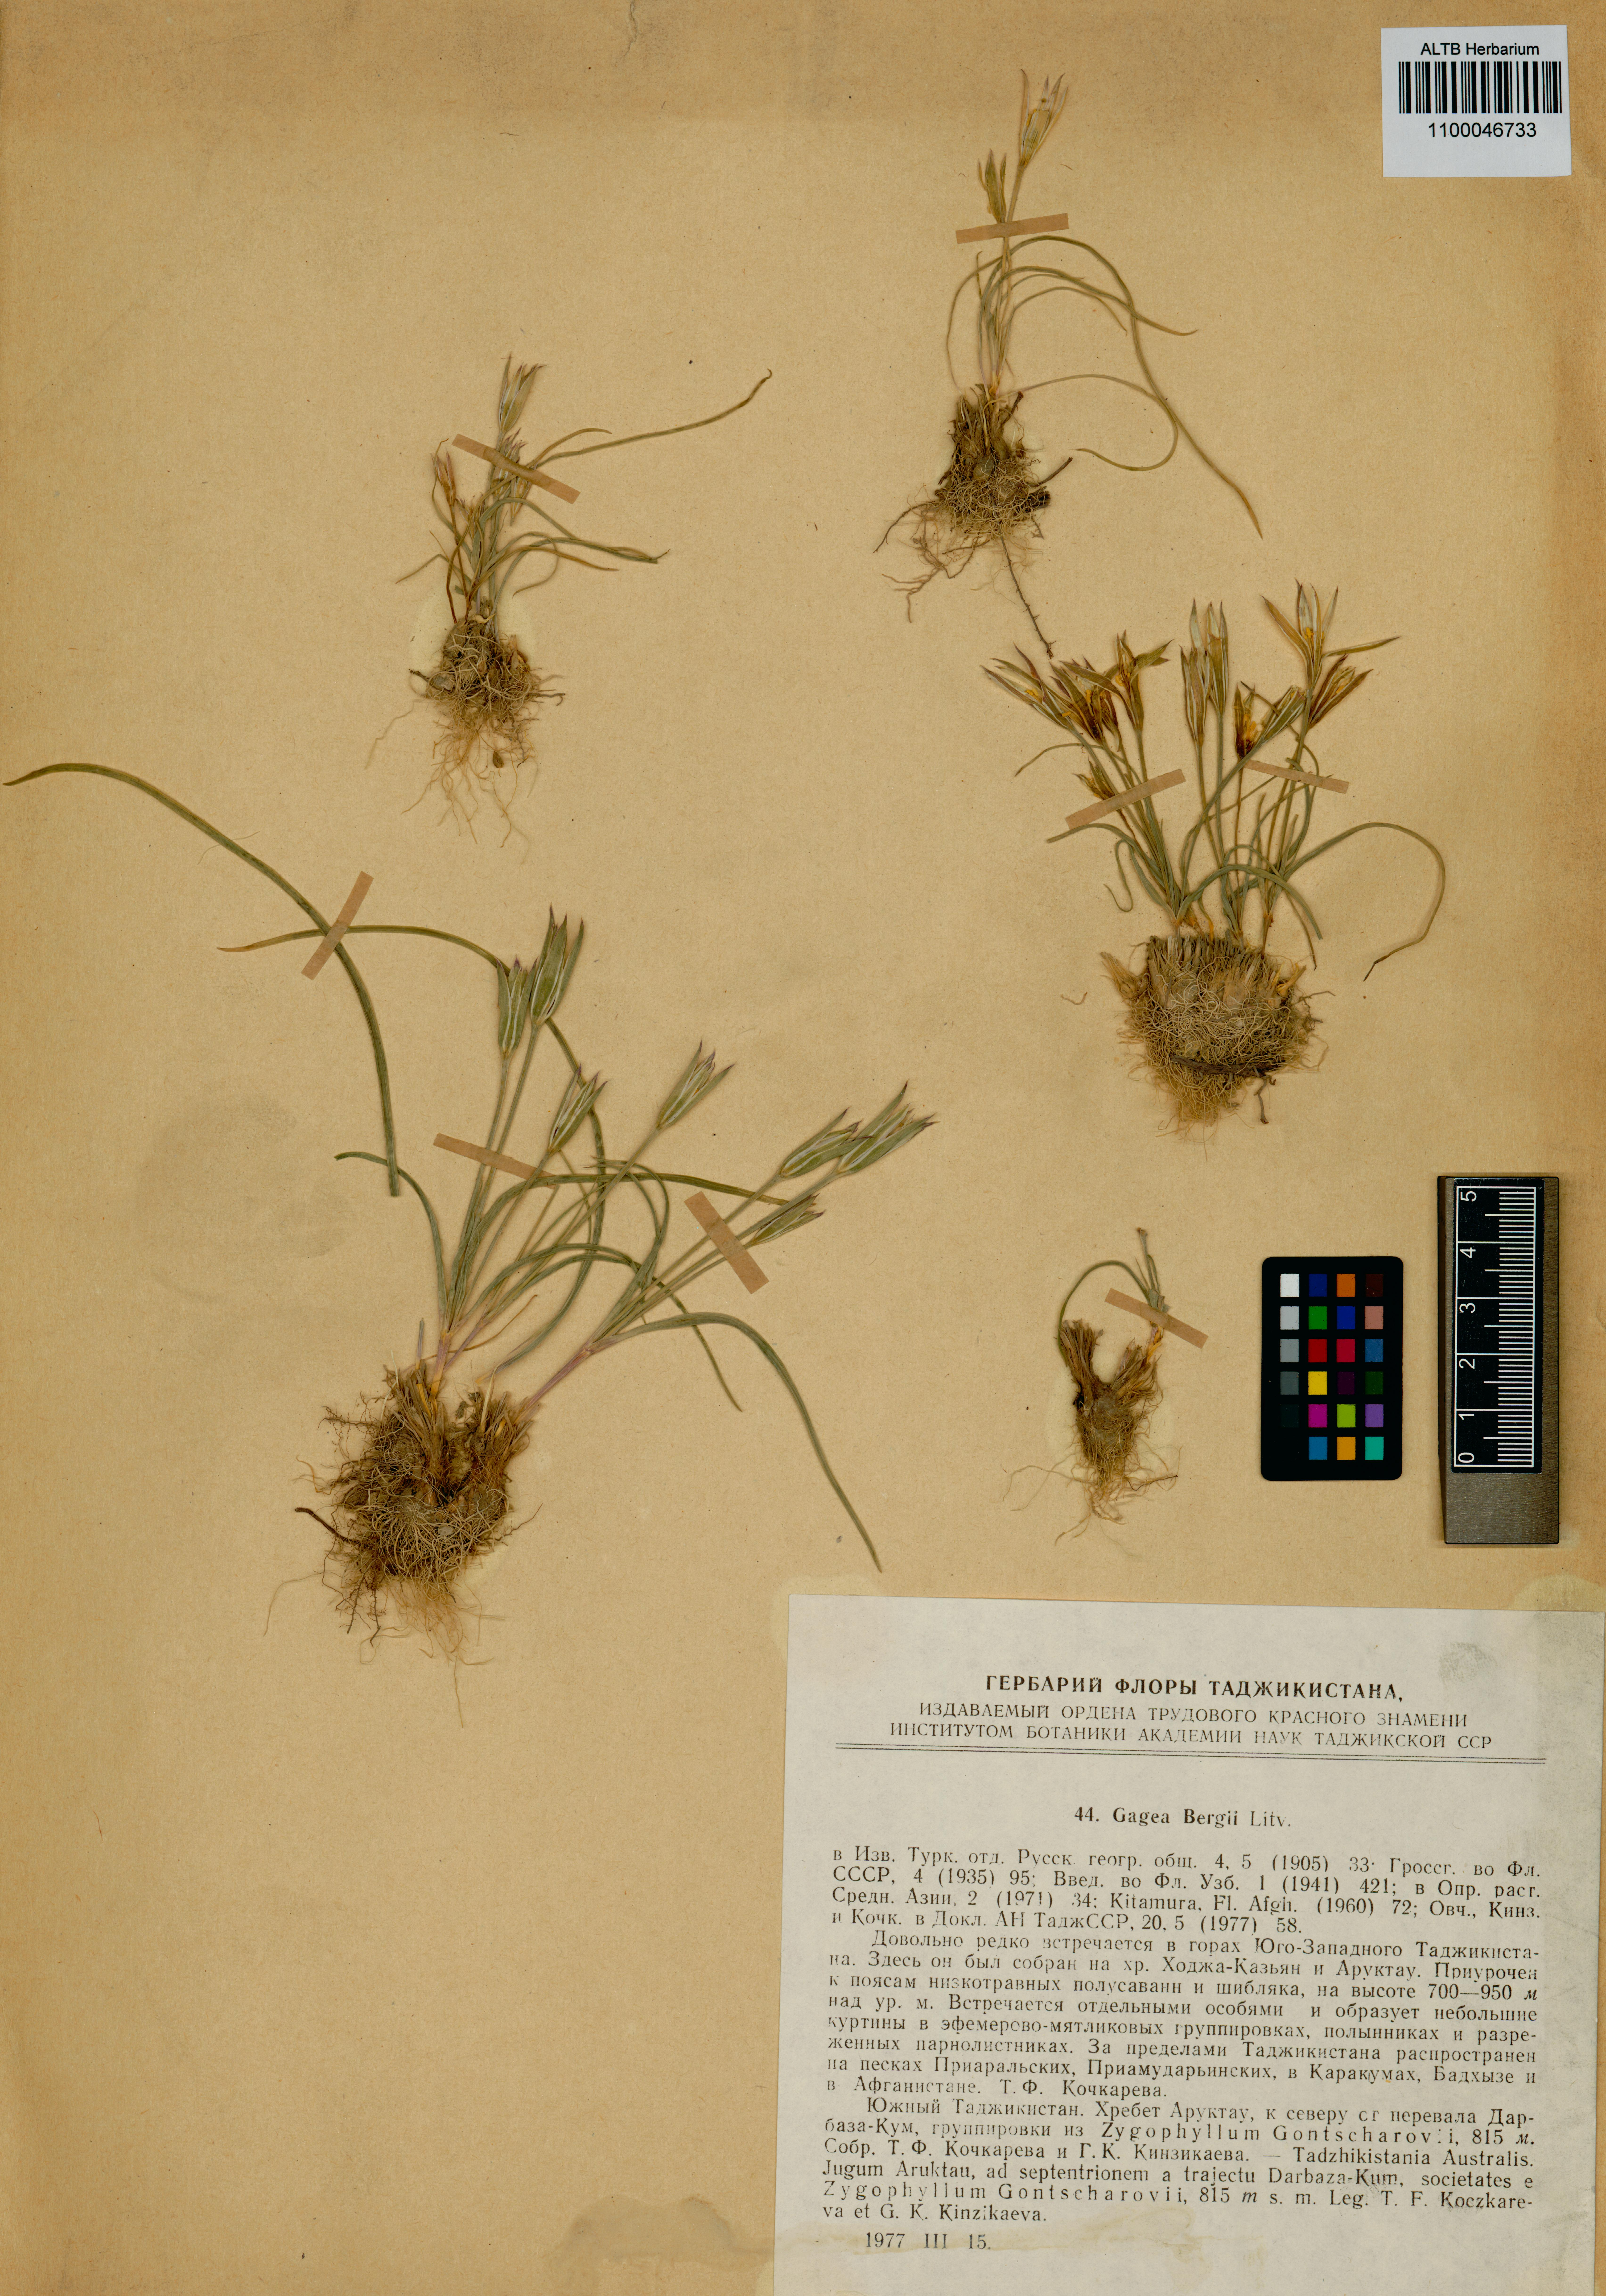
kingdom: Plantae
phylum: Tracheophyta
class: Liliopsida
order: Liliales
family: Liliaceae
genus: Gagea
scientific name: Gagea bergii
